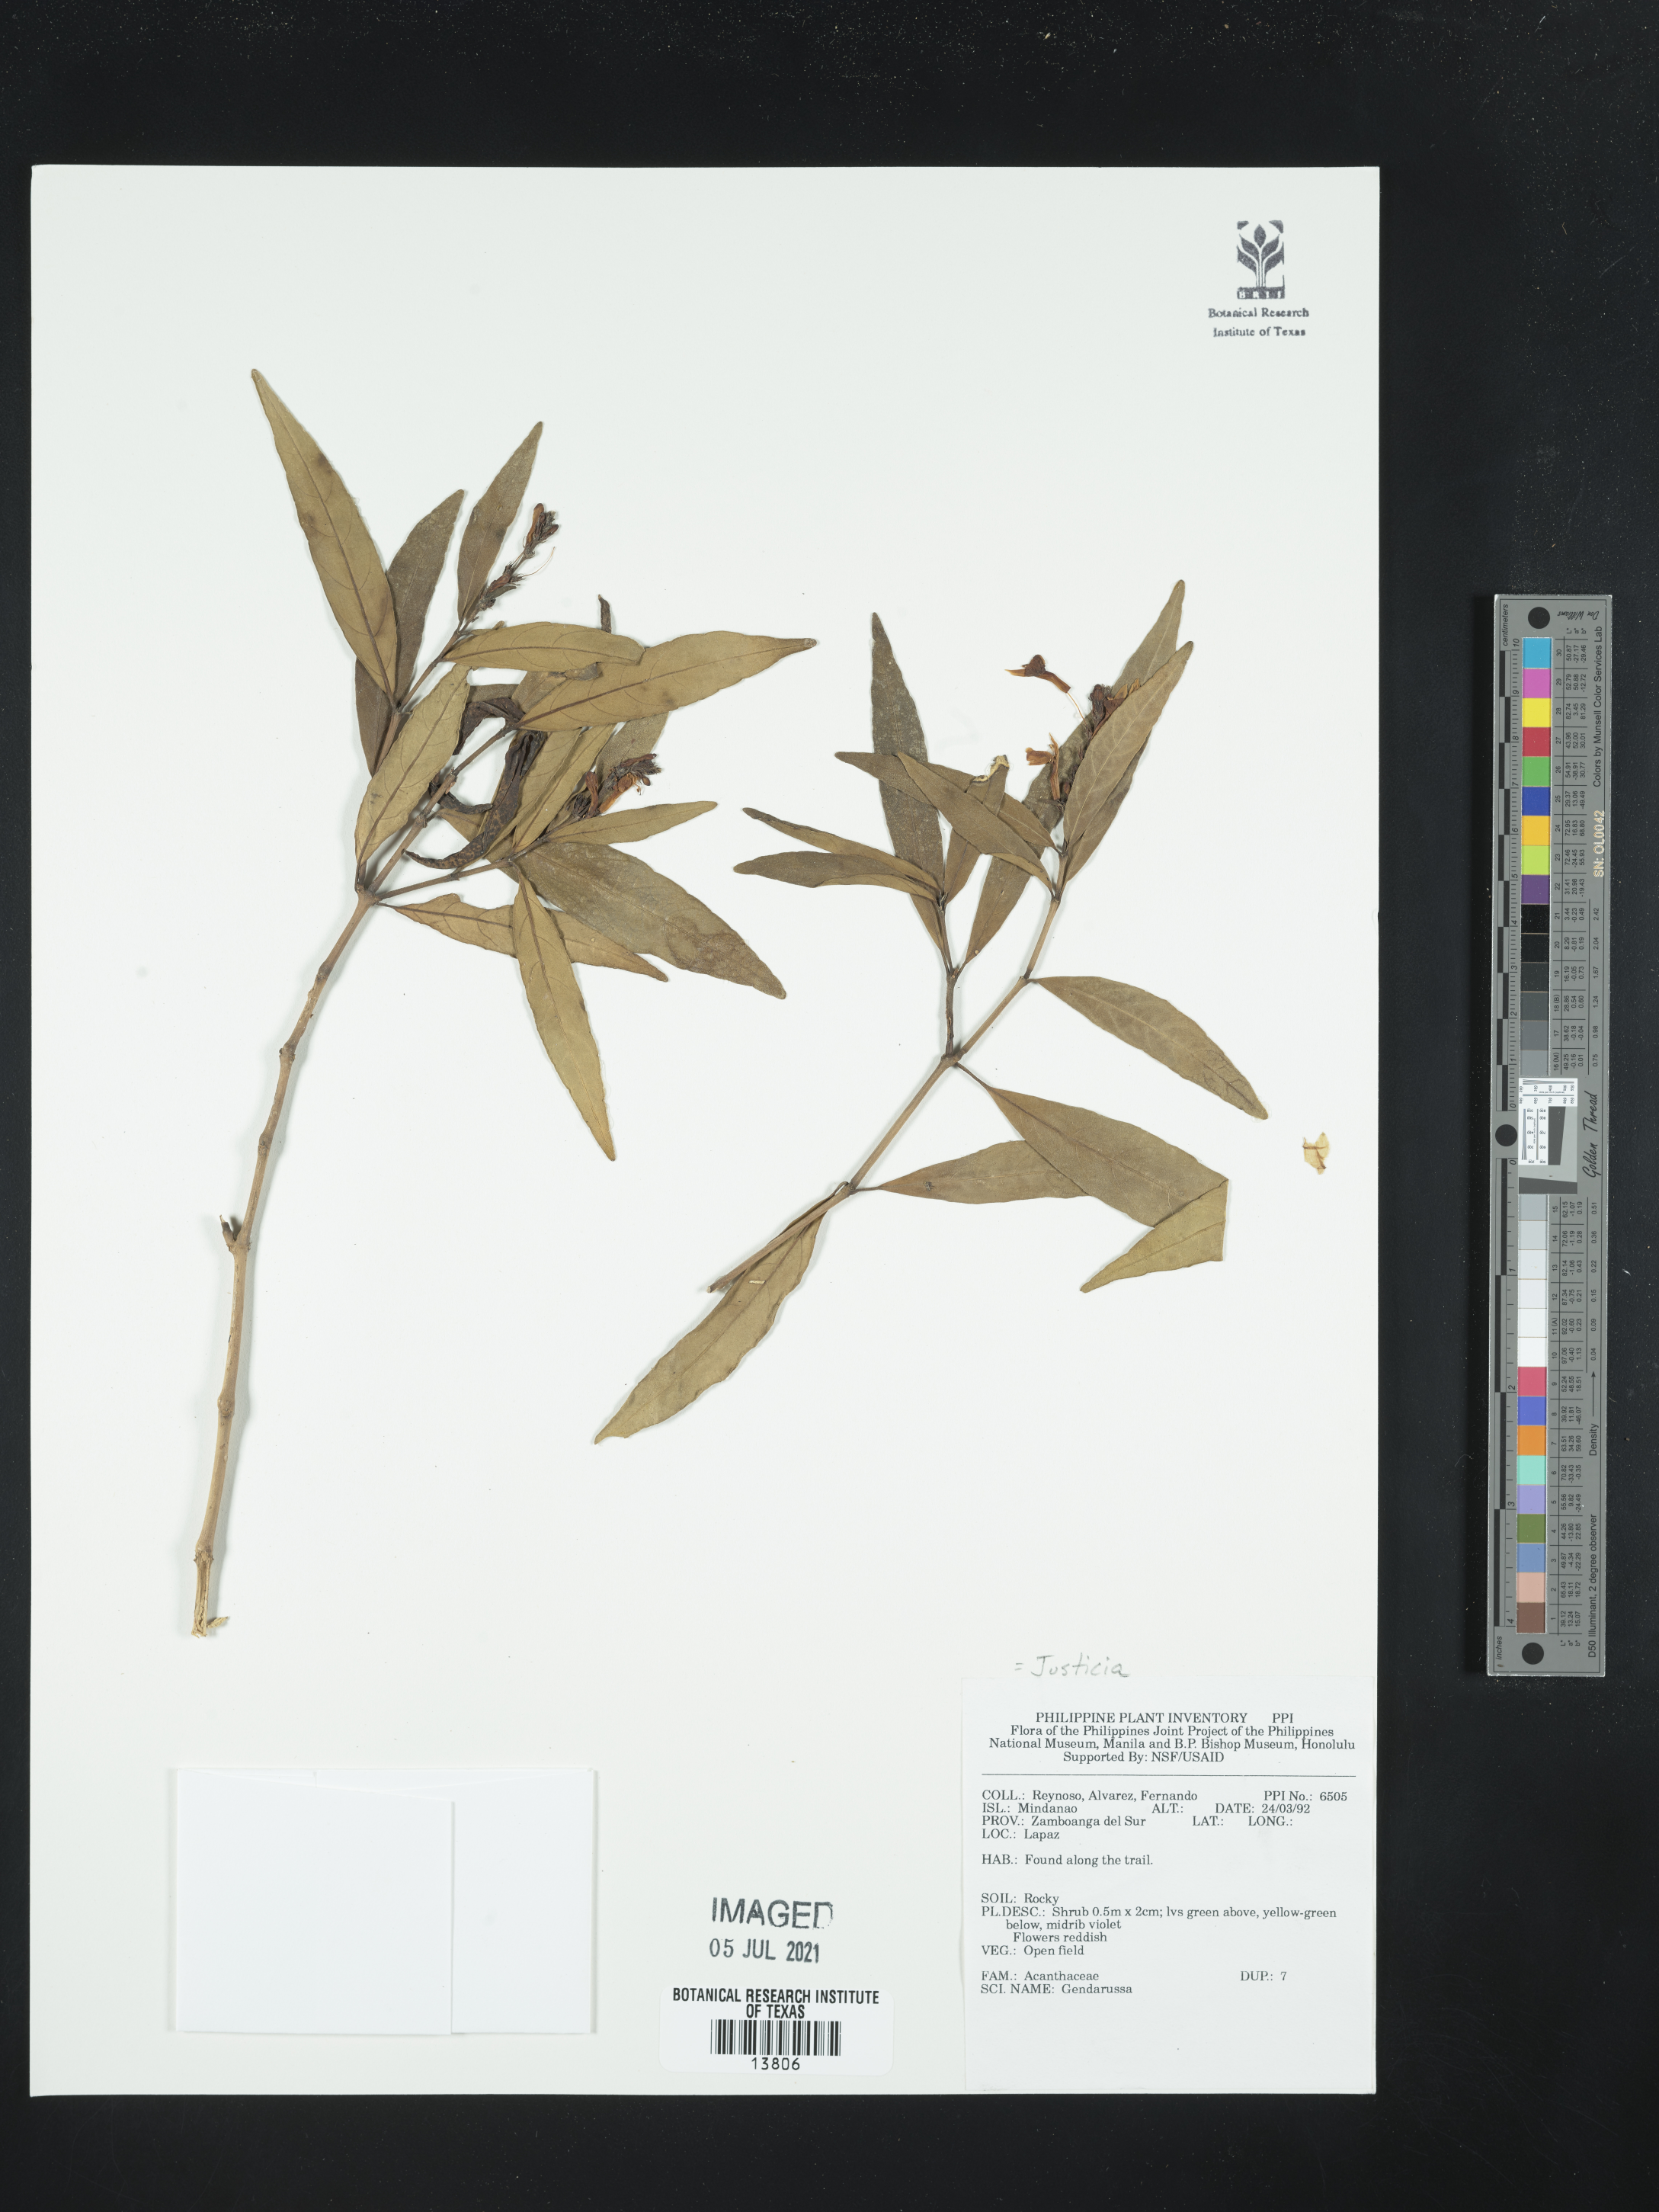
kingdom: Plantae
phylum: Tracheophyta
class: Magnoliopsida
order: Lamiales
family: Acanthaceae
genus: Justicia
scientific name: Justicia
